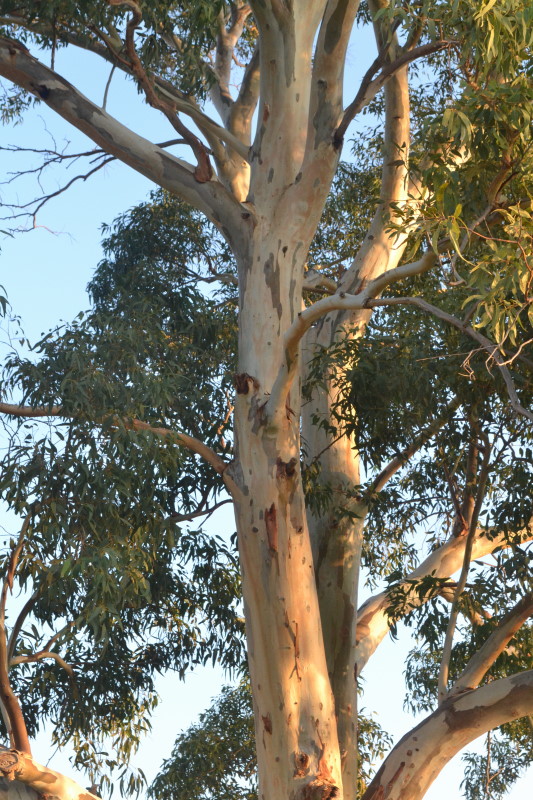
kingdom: Plantae
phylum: Tracheophyta
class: Magnoliopsida
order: Myrtales
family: Myrtaceae
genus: Eucalyptus
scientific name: Eucalyptus
